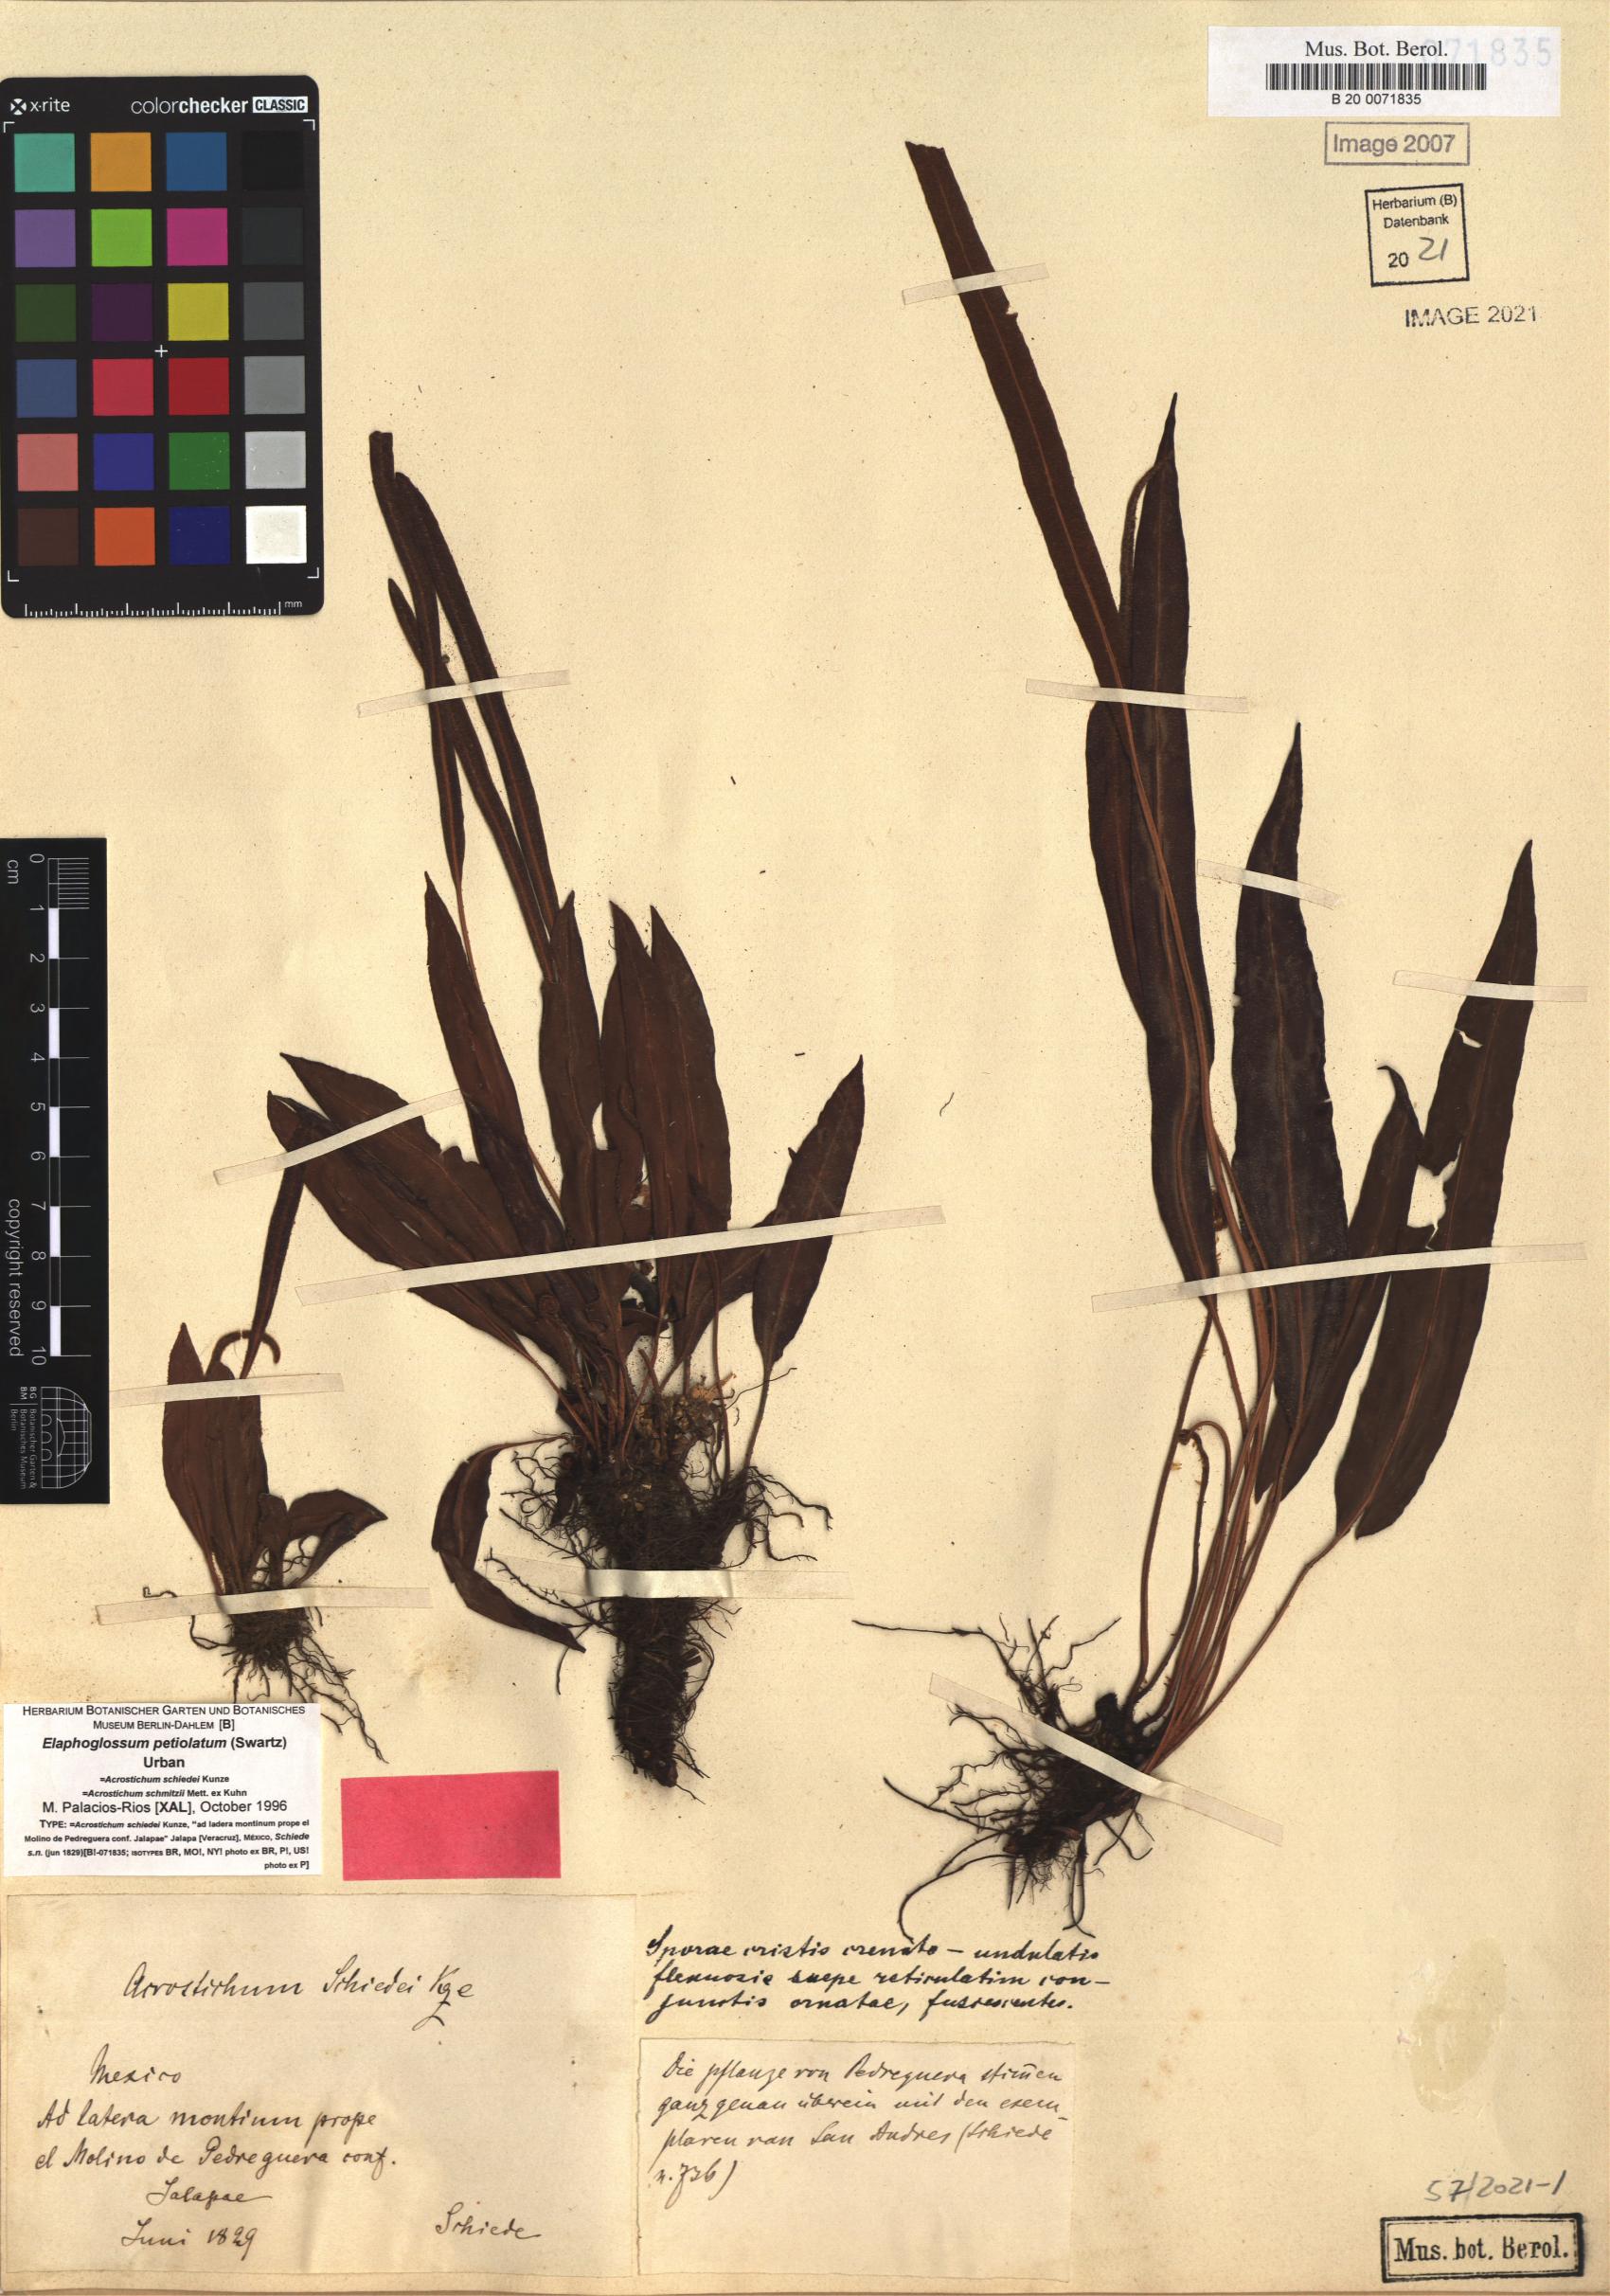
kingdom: Plantae
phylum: Tracheophyta
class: Polypodiopsida
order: Polypodiales
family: Dryopteridaceae
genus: Elaphoglossum
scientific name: Elaphoglossum petiolatum
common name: Graceful tonguefern
